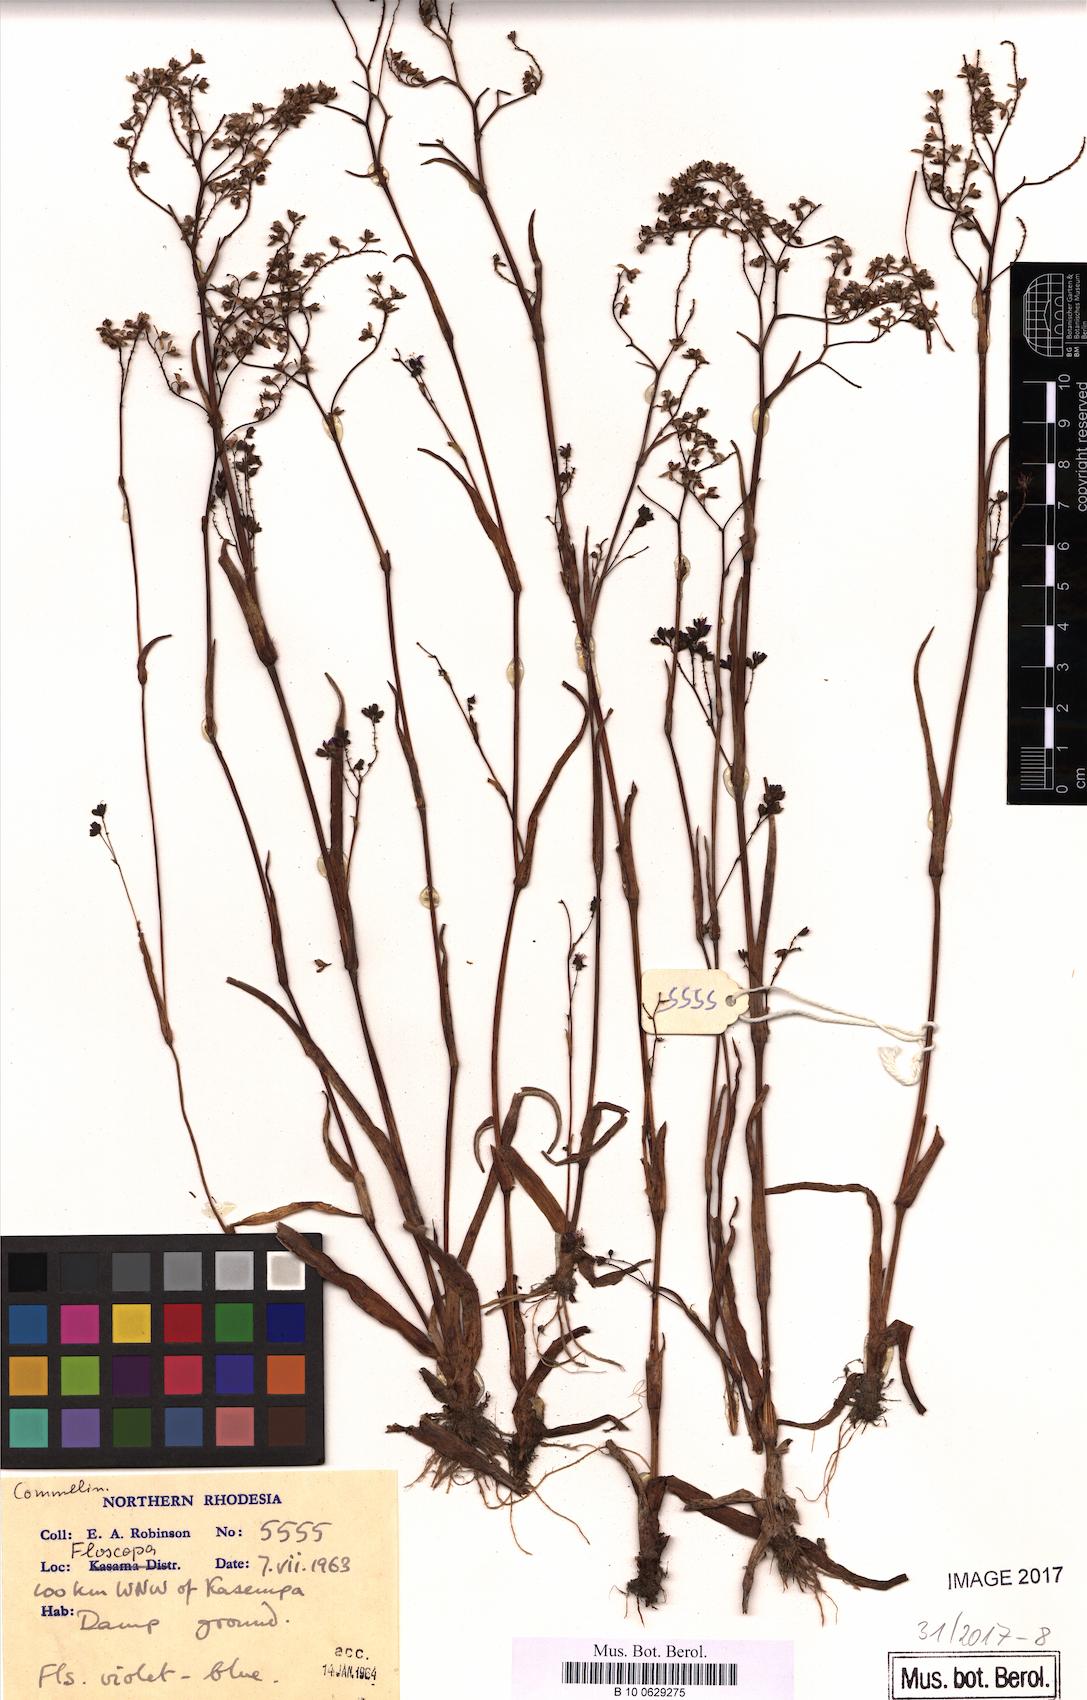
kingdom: Plantae
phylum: Tracheophyta
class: Liliopsida
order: Commelinales
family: Commelinaceae
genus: Floscopa
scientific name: Floscopa
